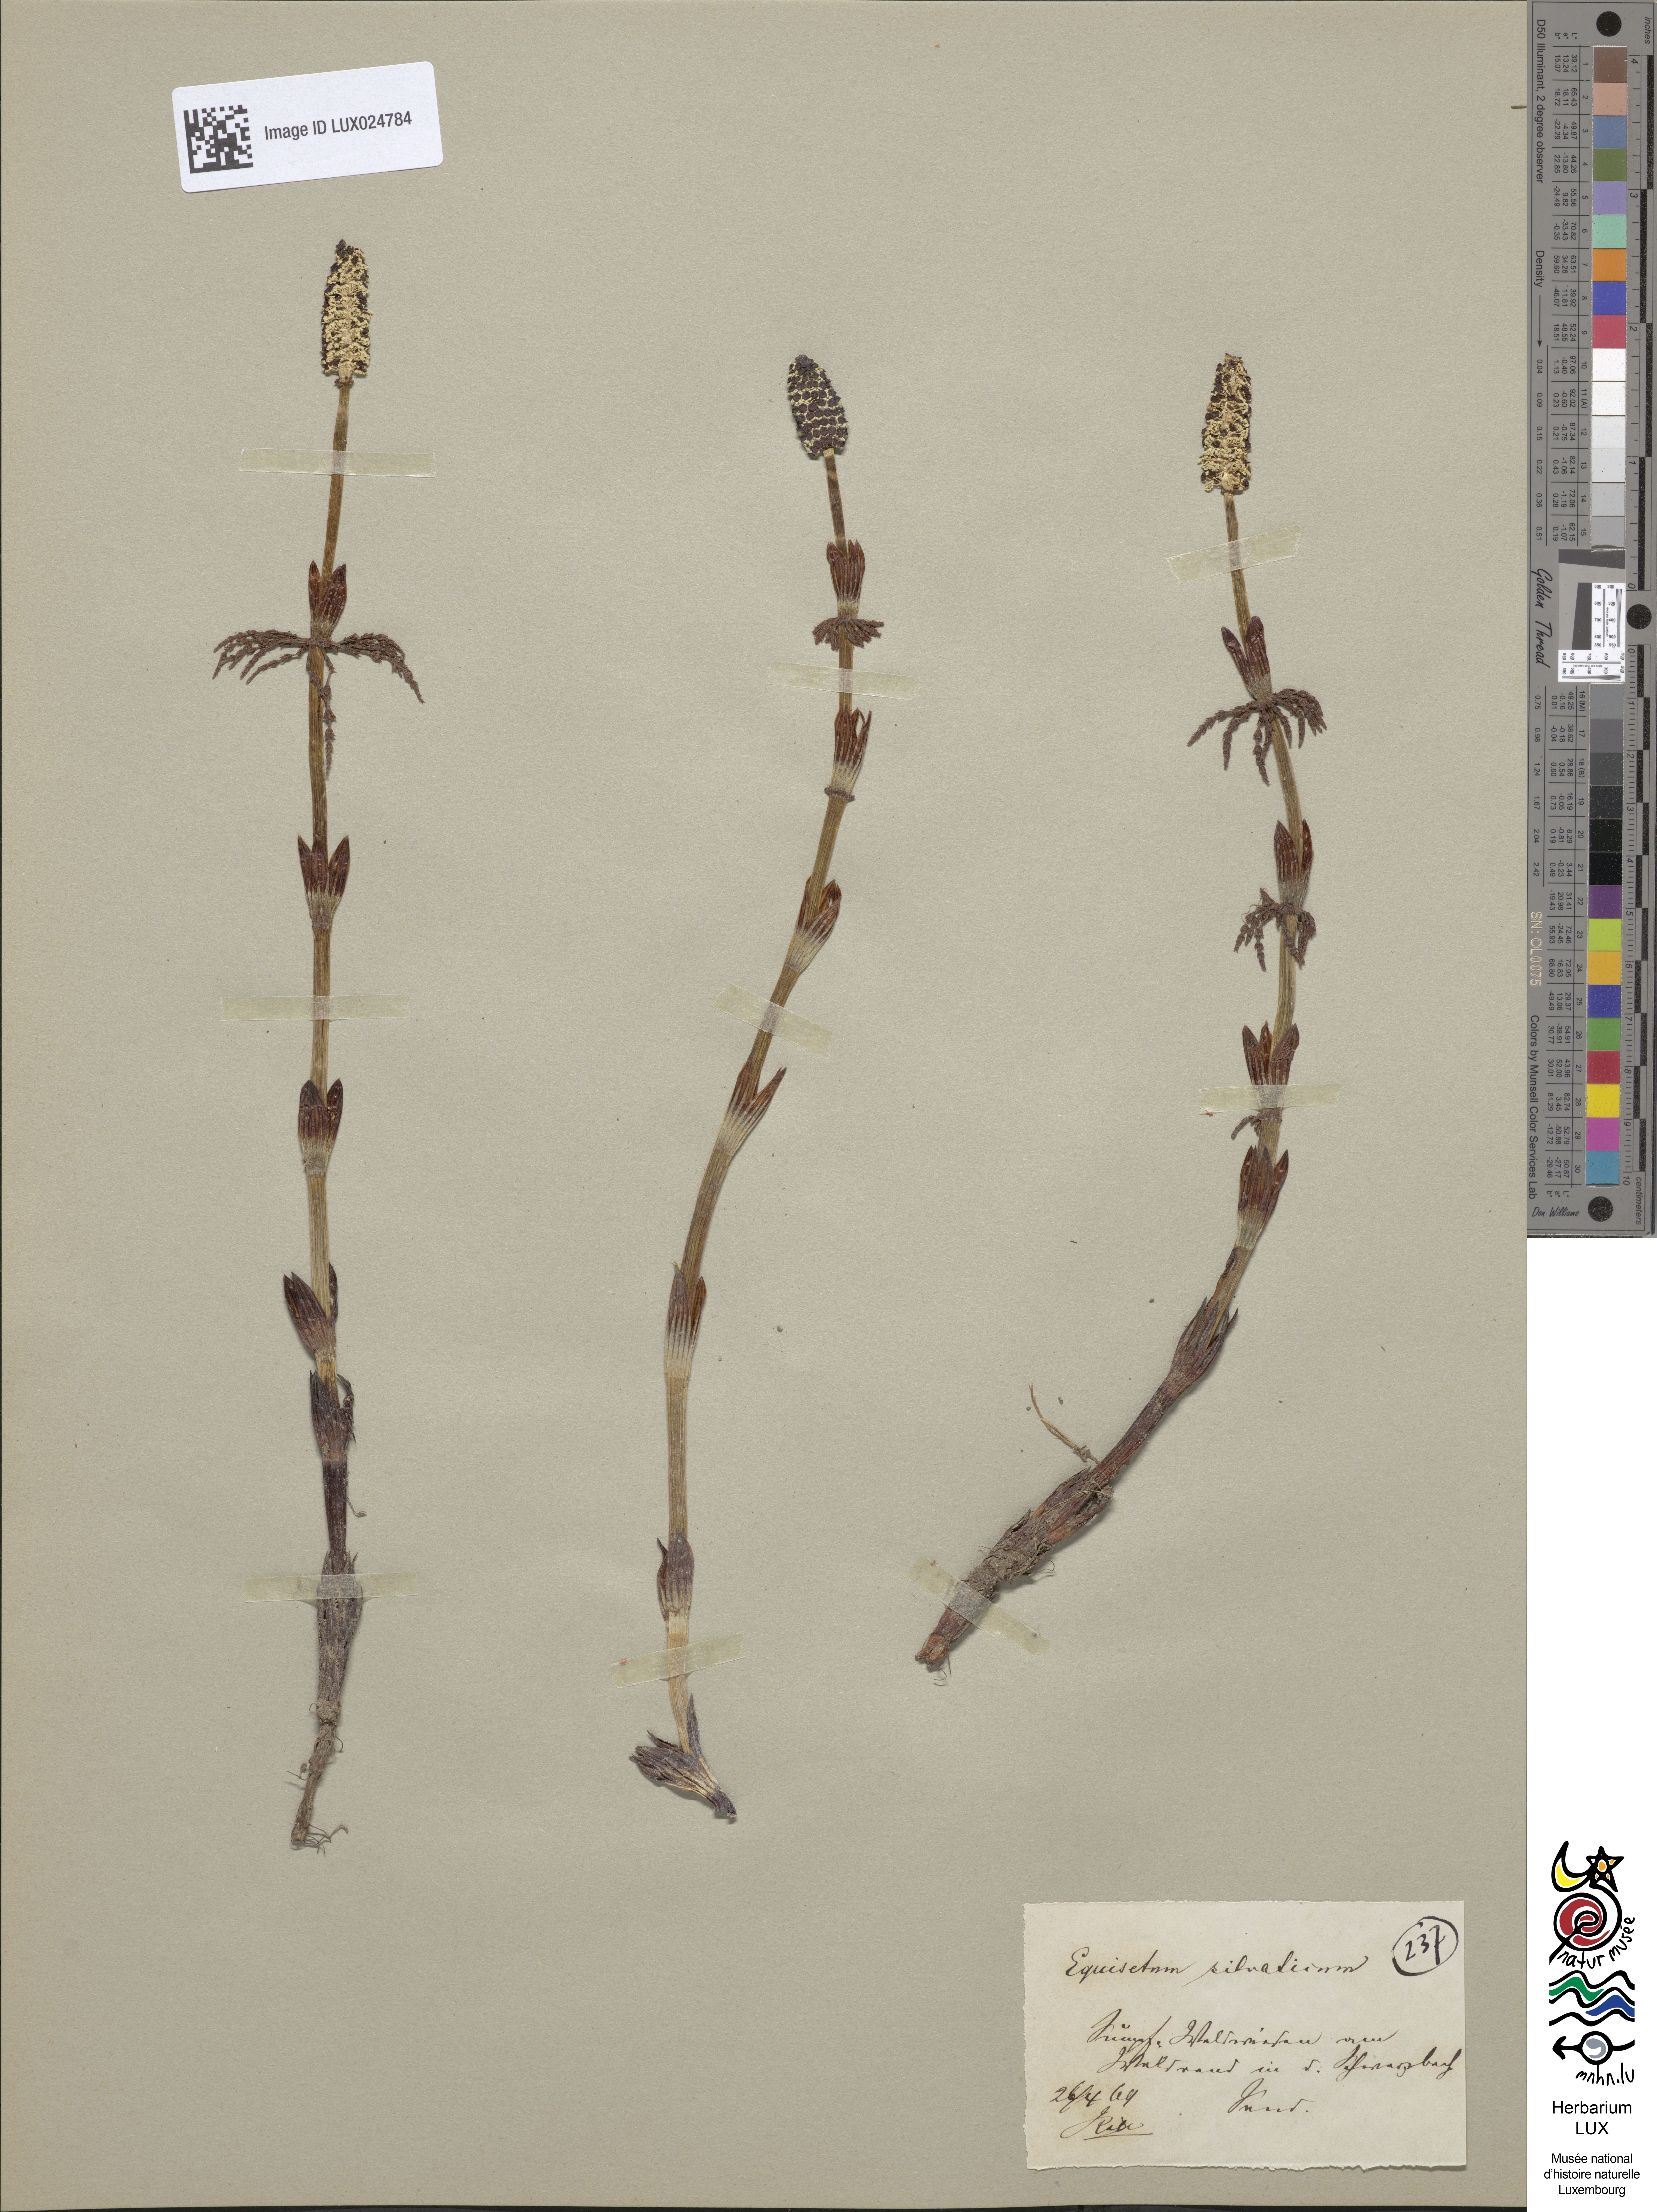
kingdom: Plantae
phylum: Tracheophyta
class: Polypodiopsida
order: Equisetales
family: Equisetaceae
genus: Equisetum
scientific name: Equisetum sylvaticum
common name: Wood horsetail
